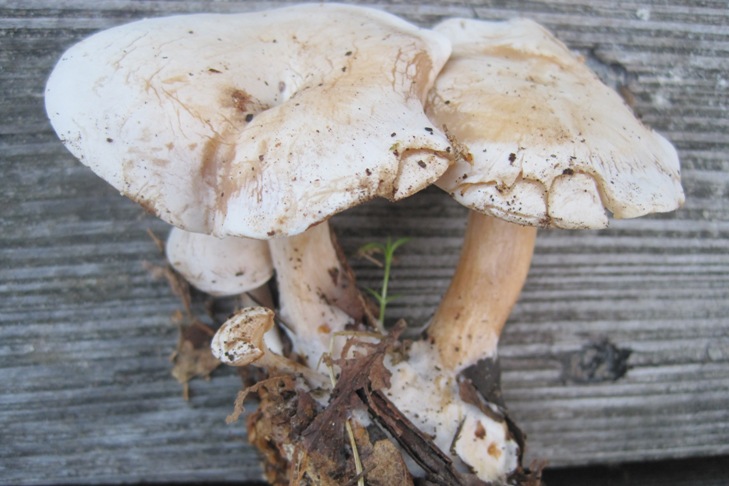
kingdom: Fungi
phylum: Basidiomycota
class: Agaricomycetes
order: Agaricales
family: Tricholomataceae
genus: Clitocybe
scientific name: Clitocybe phyllophila
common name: løv-tragthat
